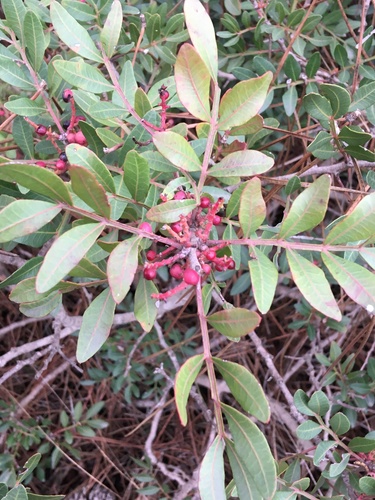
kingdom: Plantae
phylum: Tracheophyta
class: Magnoliopsida
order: Sapindales
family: Anacardiaceae
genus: Pistacia
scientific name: Pistacia lentiscus
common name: Lentisk
